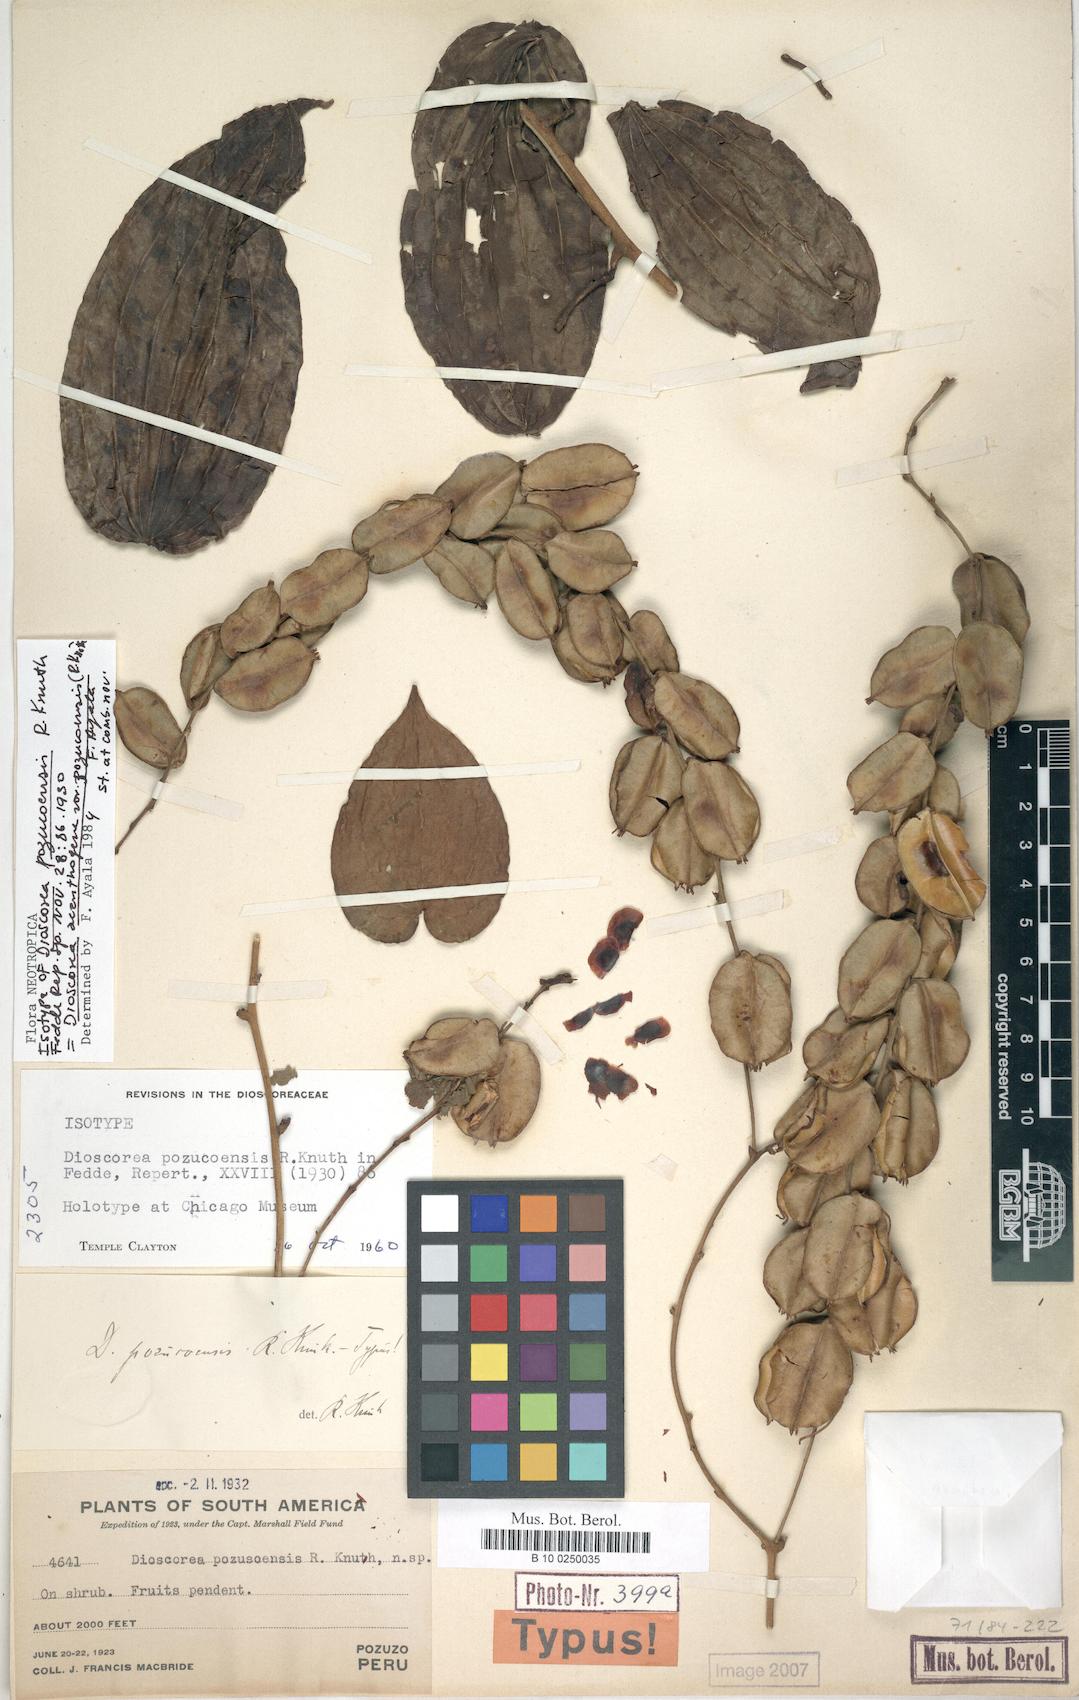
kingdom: Plantae
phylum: Tracheophyta
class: Liliopsida
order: Dioscoreales
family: Dioscoreaceae
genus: Dioscorea
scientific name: Dioscorea acanthogene
